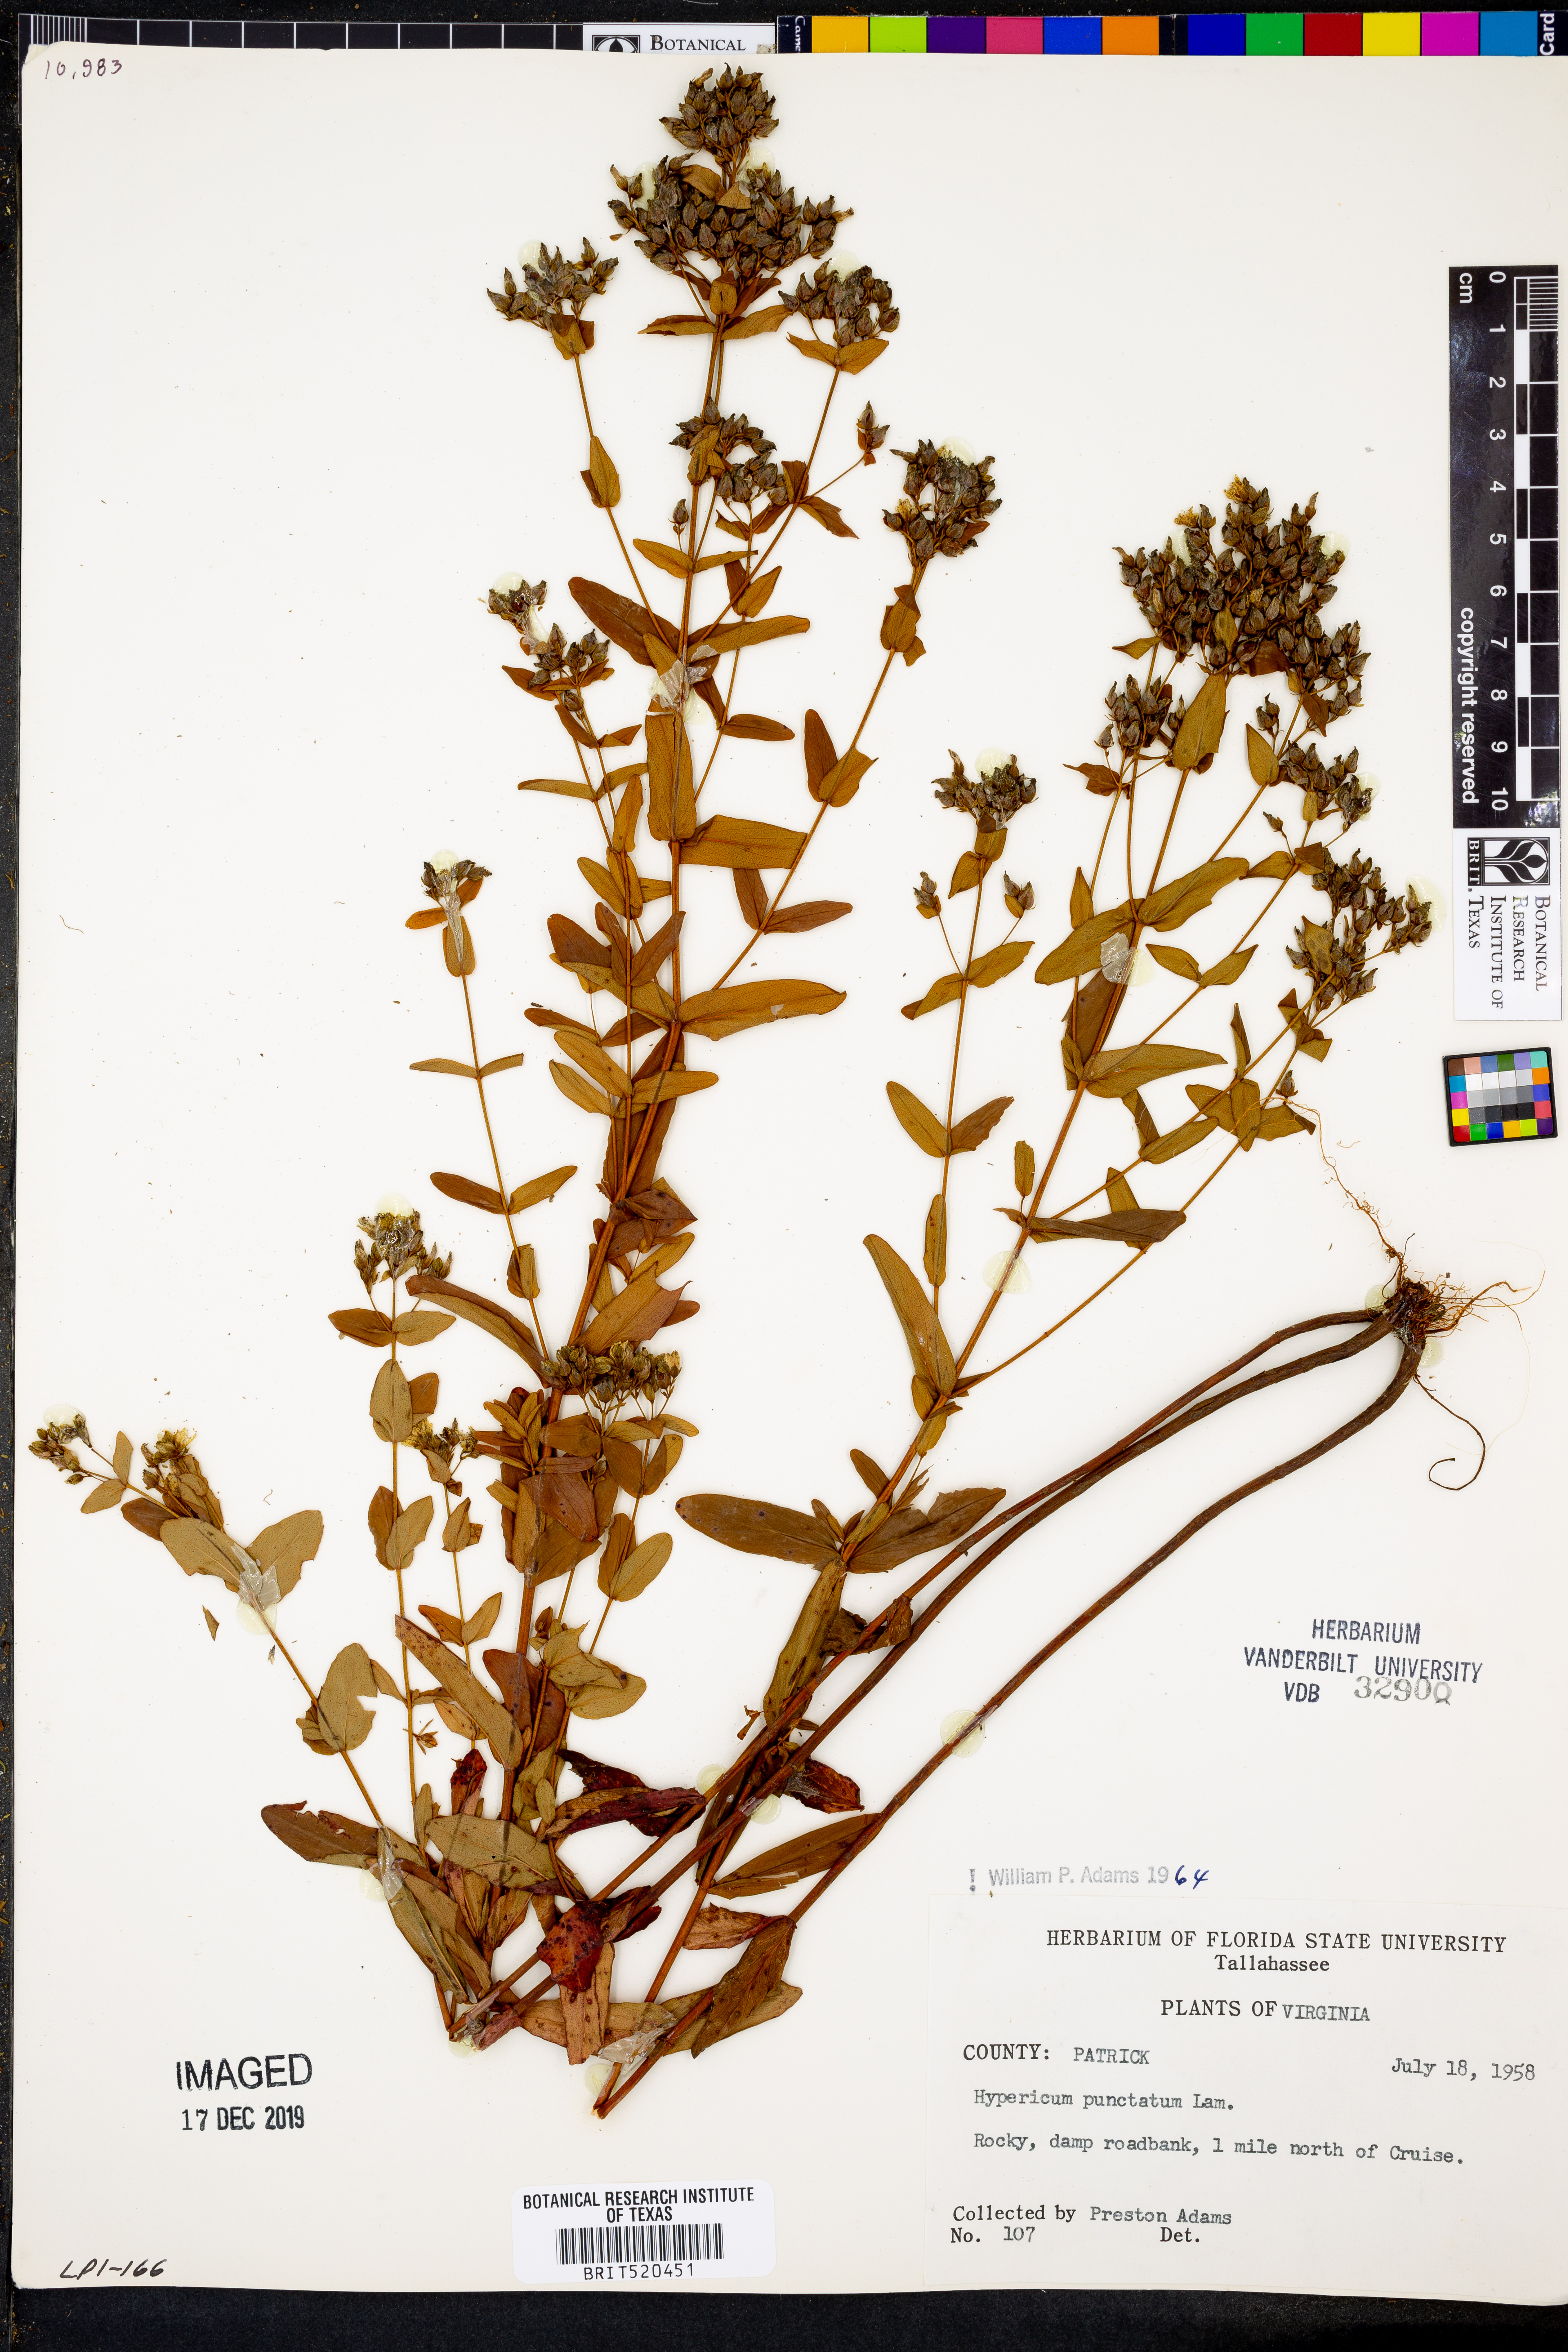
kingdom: Plantae
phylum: Tracheophyta
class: Magnoliopsida
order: Malpighiales
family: Hypericaceae
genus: Hypericum
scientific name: Hypericum punctatum
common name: Spotted st. john's-wort
